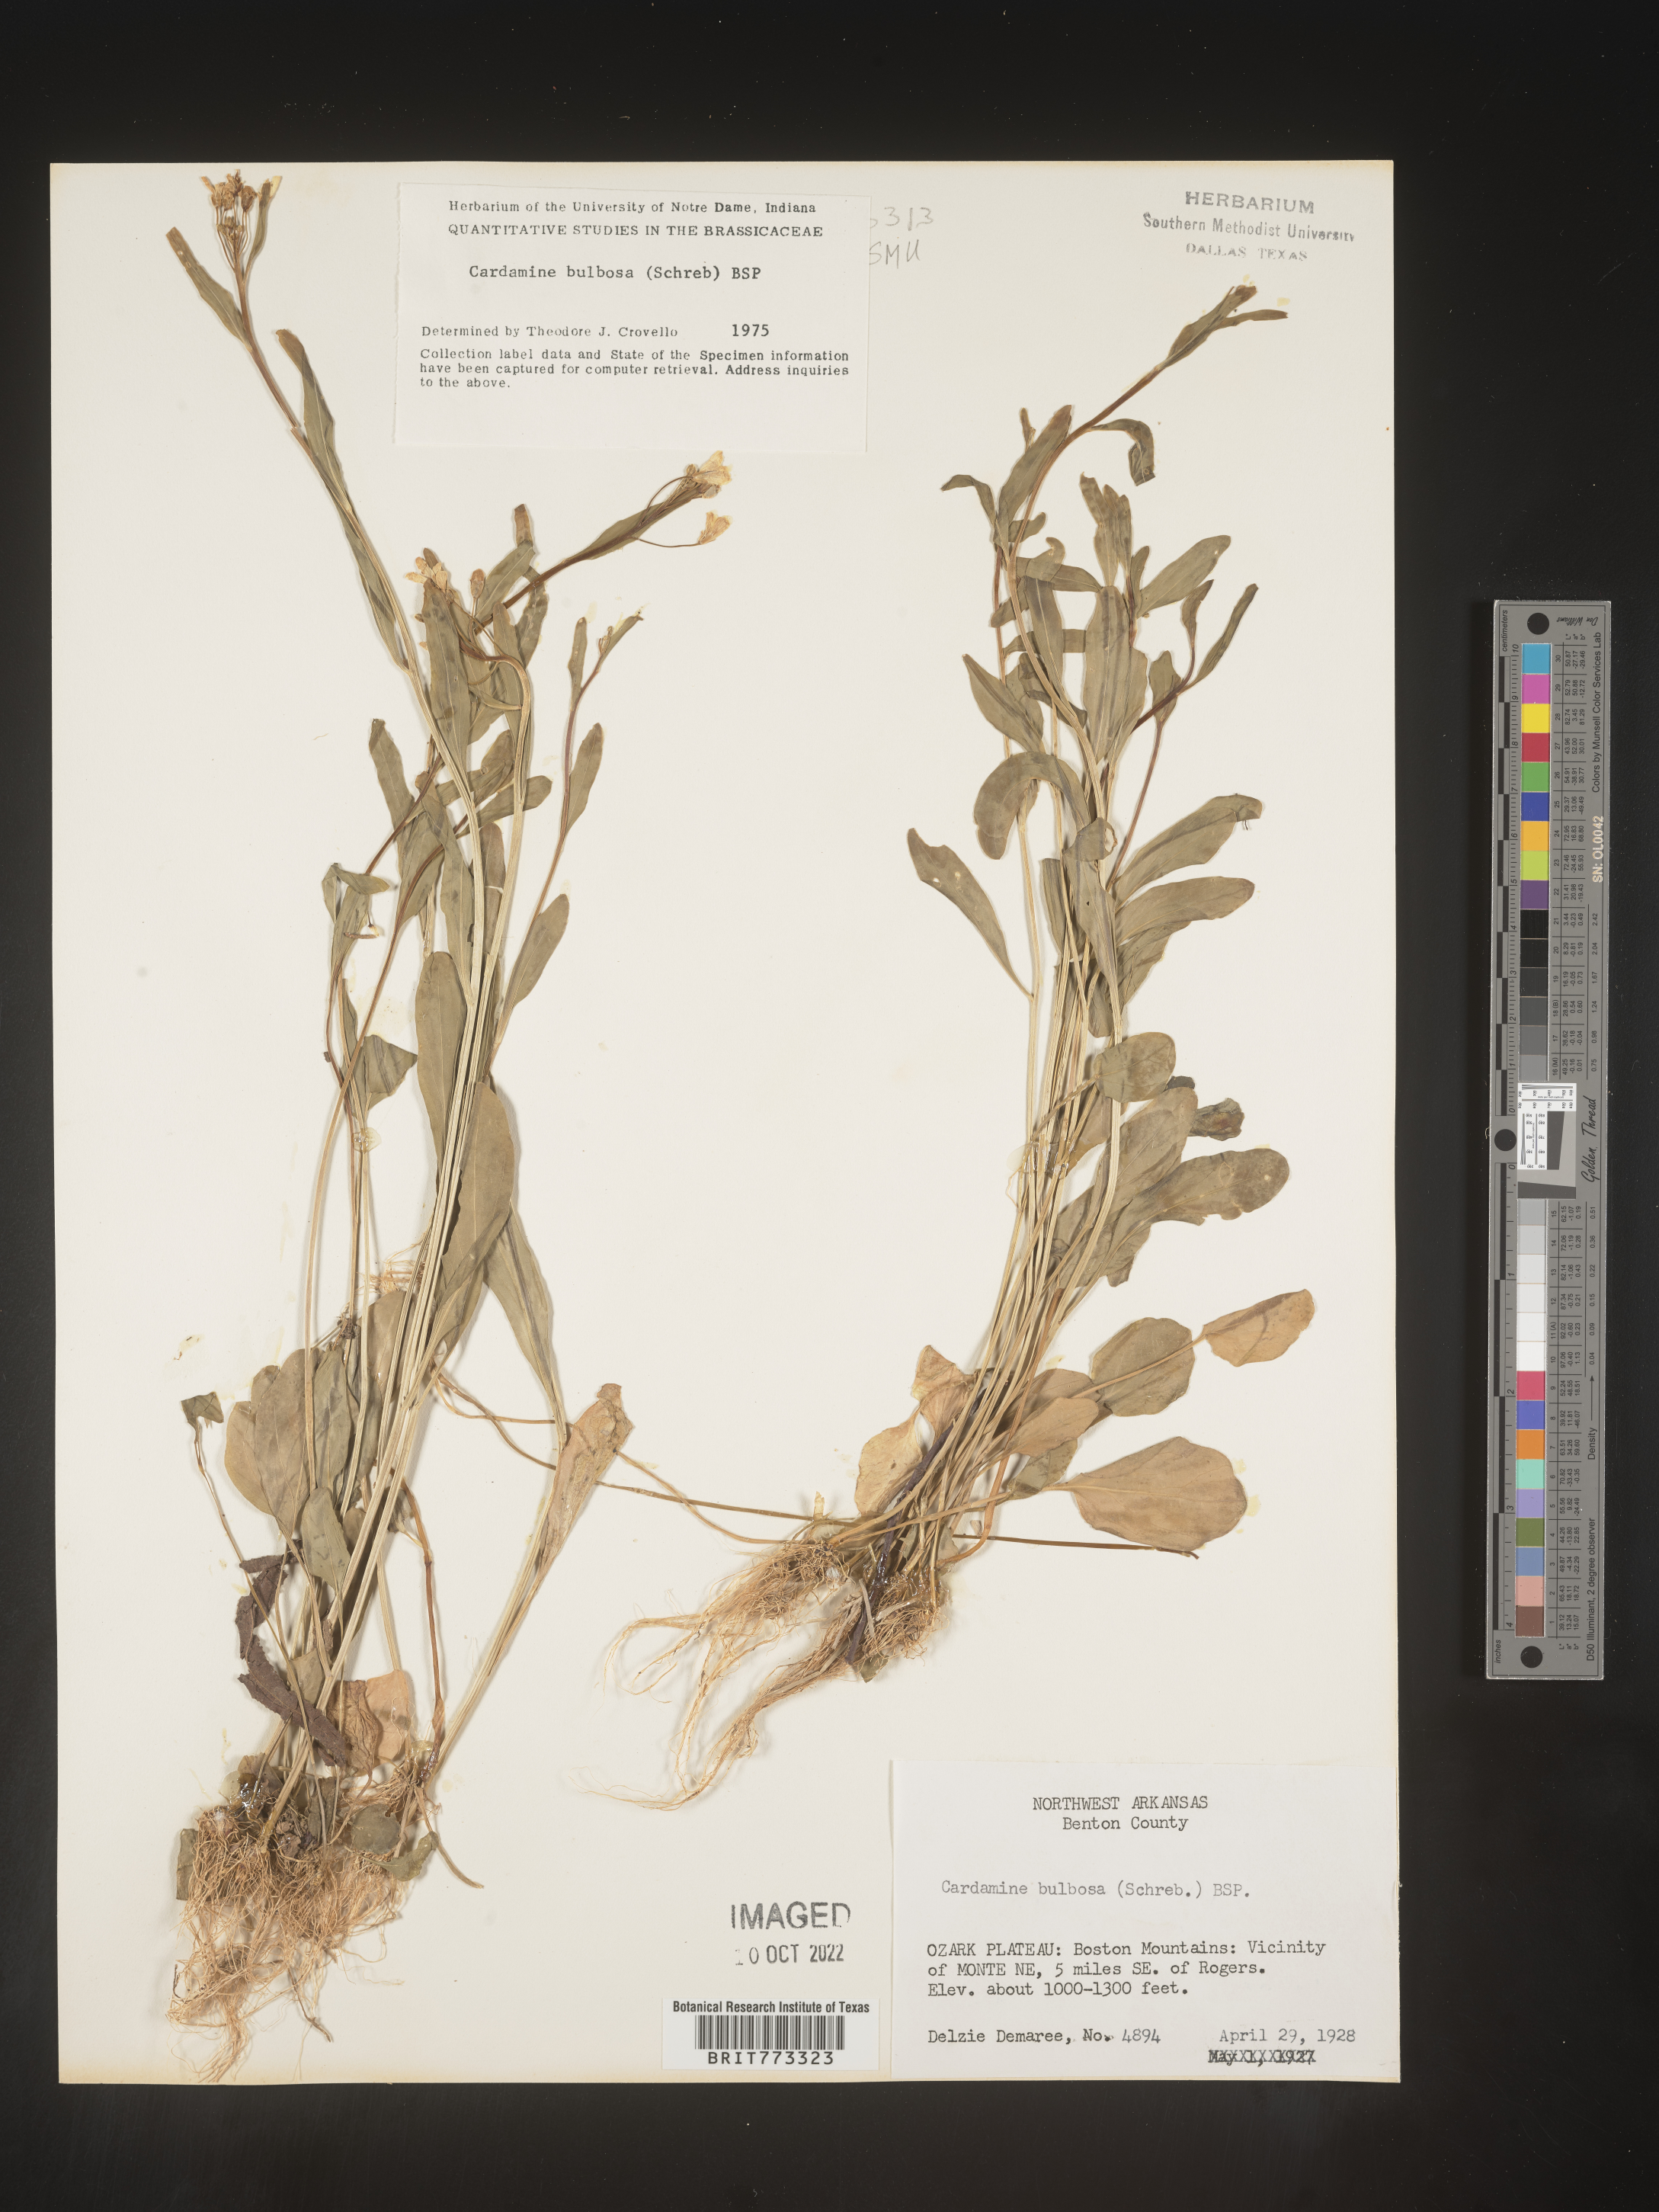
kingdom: Plantae
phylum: Tracheophyta
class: Magnoliopsida
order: Brassicales
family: Brassicaceae
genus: Cardamine
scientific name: Cardamine bulbosa
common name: Spring cress
